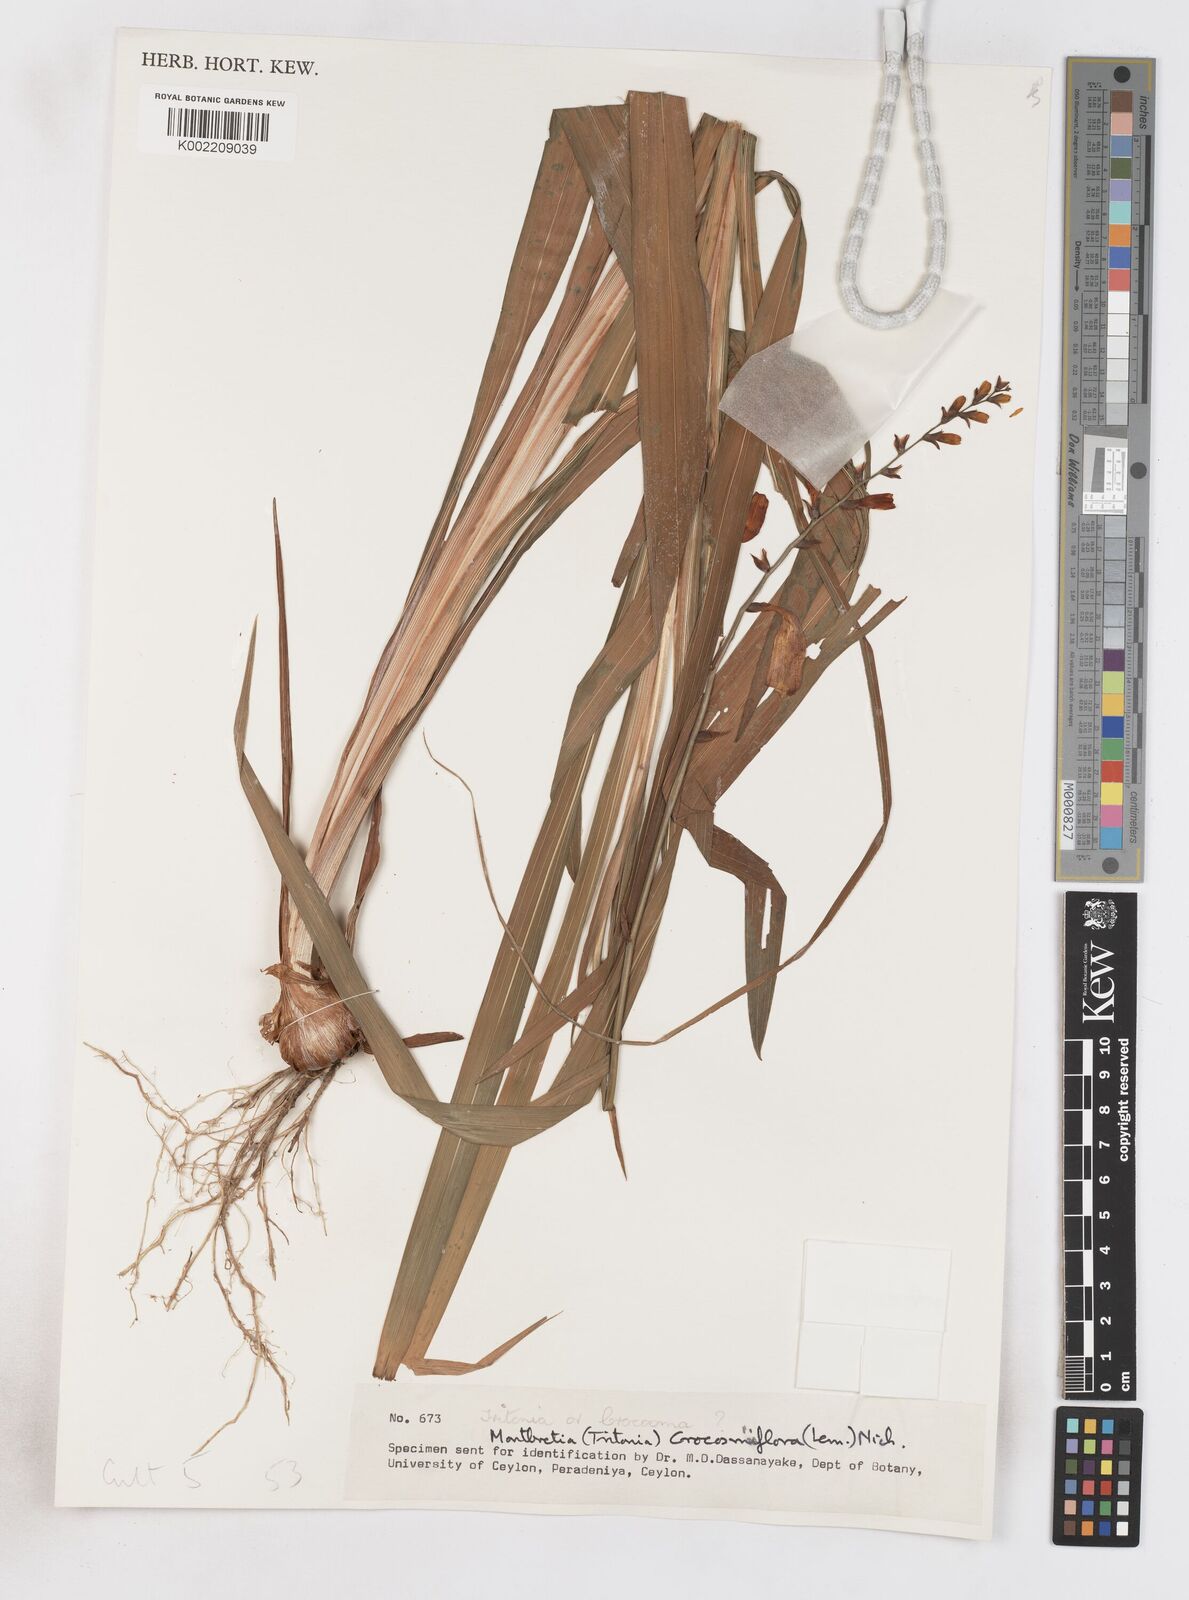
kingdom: Plantae
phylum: Tracheophyta
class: Liliopsida
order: Asparagales
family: Iridaceae
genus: Crocosmia
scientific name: Crocosmia crocosmiiflora
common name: Montbretia
